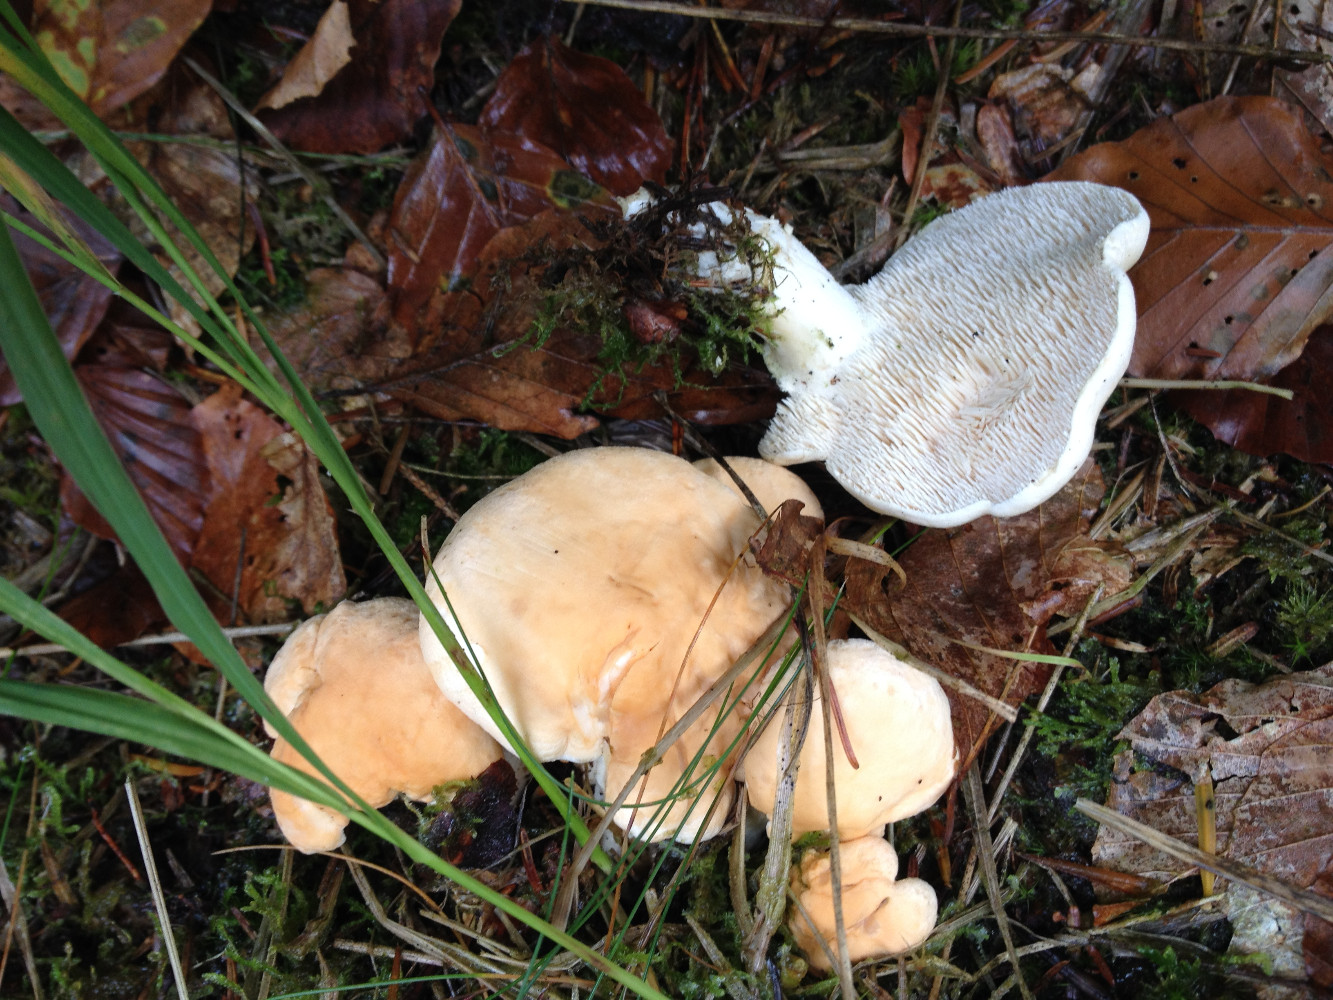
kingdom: Fungi
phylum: Basidiomycota
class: Agaricomycetes
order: Cantharellales
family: Hydnaceae
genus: Hydnum
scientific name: Hydnum repandum
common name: almindelig pigsvamp
